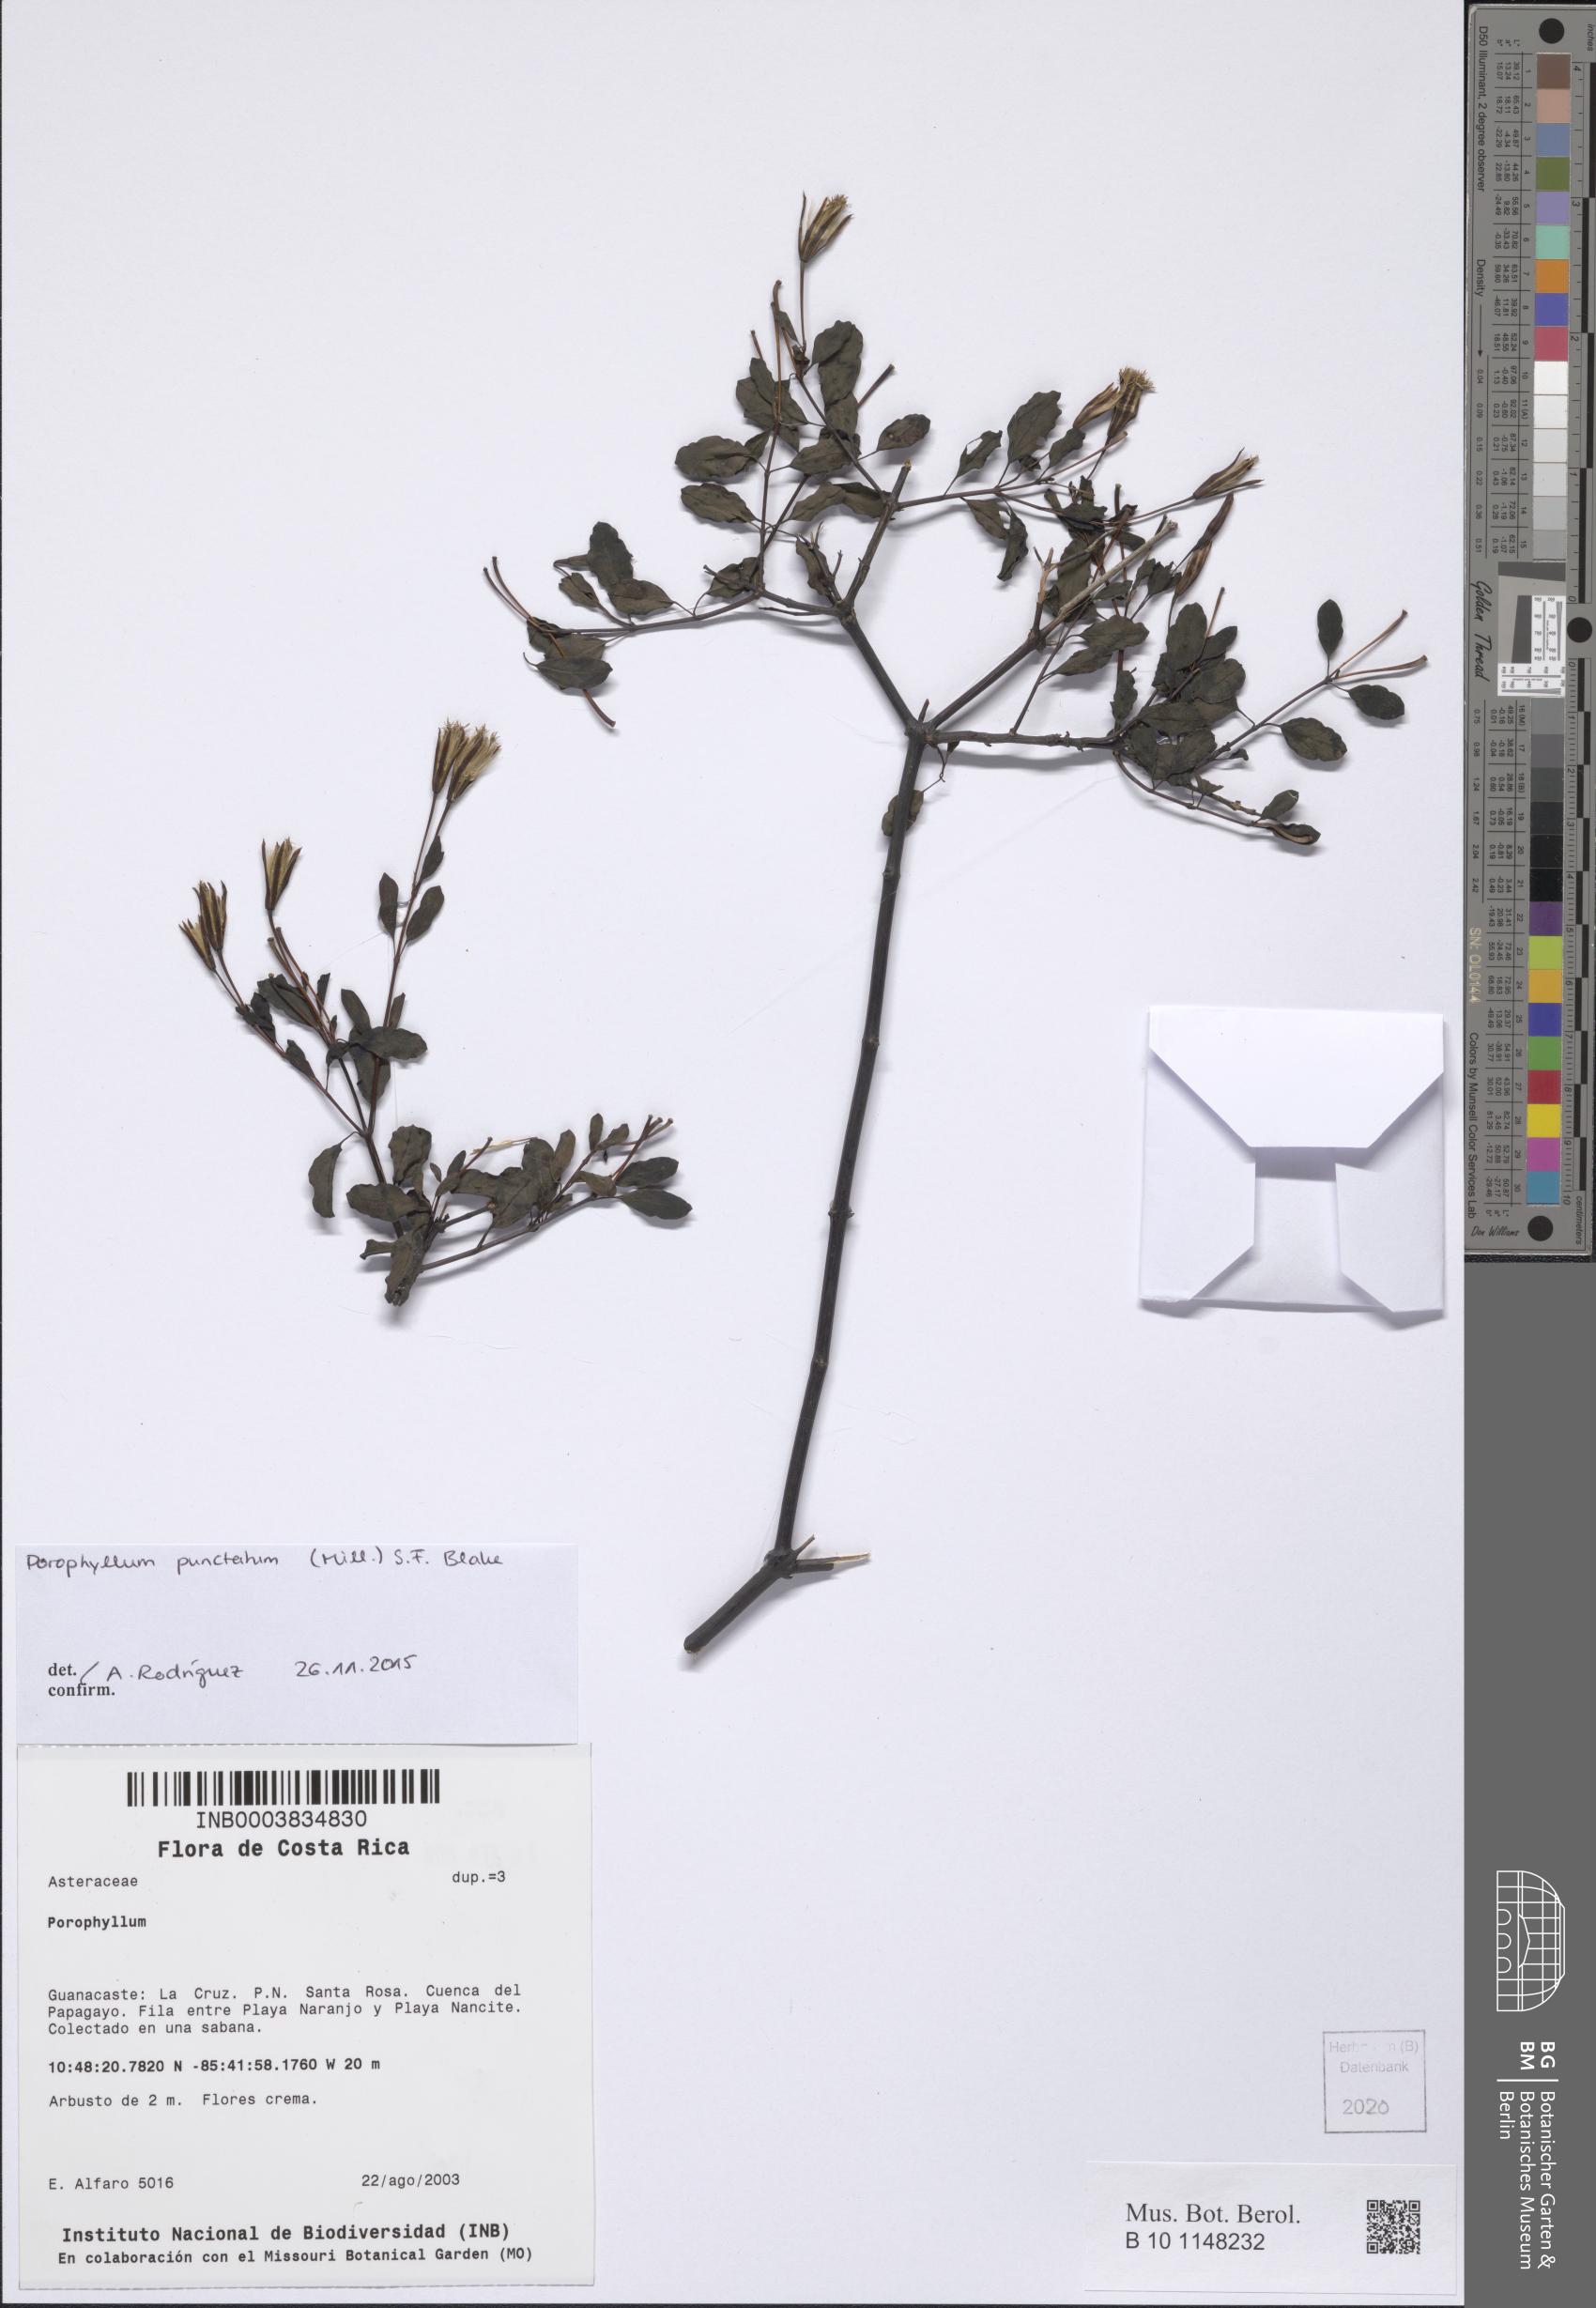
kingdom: Plantae
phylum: Tracheophyta
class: Magnoliopsida
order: Asterales
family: Asteraceae
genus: Porophyllum
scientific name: Porophyllum punctatum
